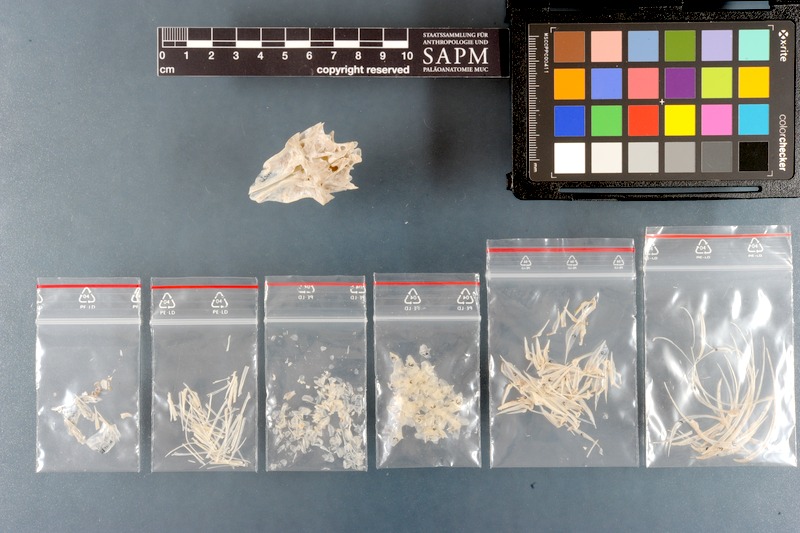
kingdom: Animalia
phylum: Chordata
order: Perciformes
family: Carangidae
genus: Decapterus
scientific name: Decapterus russelli
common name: Indian scad
